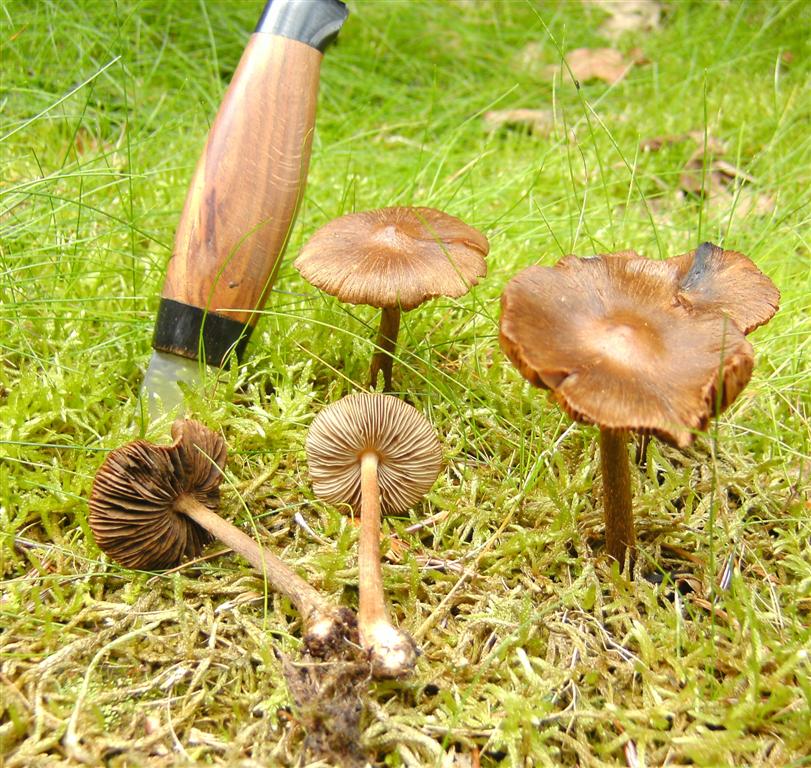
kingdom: Fungi
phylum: Basidiomycota
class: Agaricomycetes
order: Agaricales
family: Inocybaceae
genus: Inocybe
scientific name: Inocybe napipes
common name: roeknoldet trævlhat
